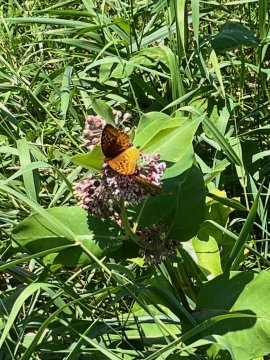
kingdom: Animalia
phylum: Arthropoda
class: Insecta
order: Lepidoptera
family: Nymphalidae
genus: Speyeria
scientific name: Speyeria cybele
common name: Great Spangled Fritillary
